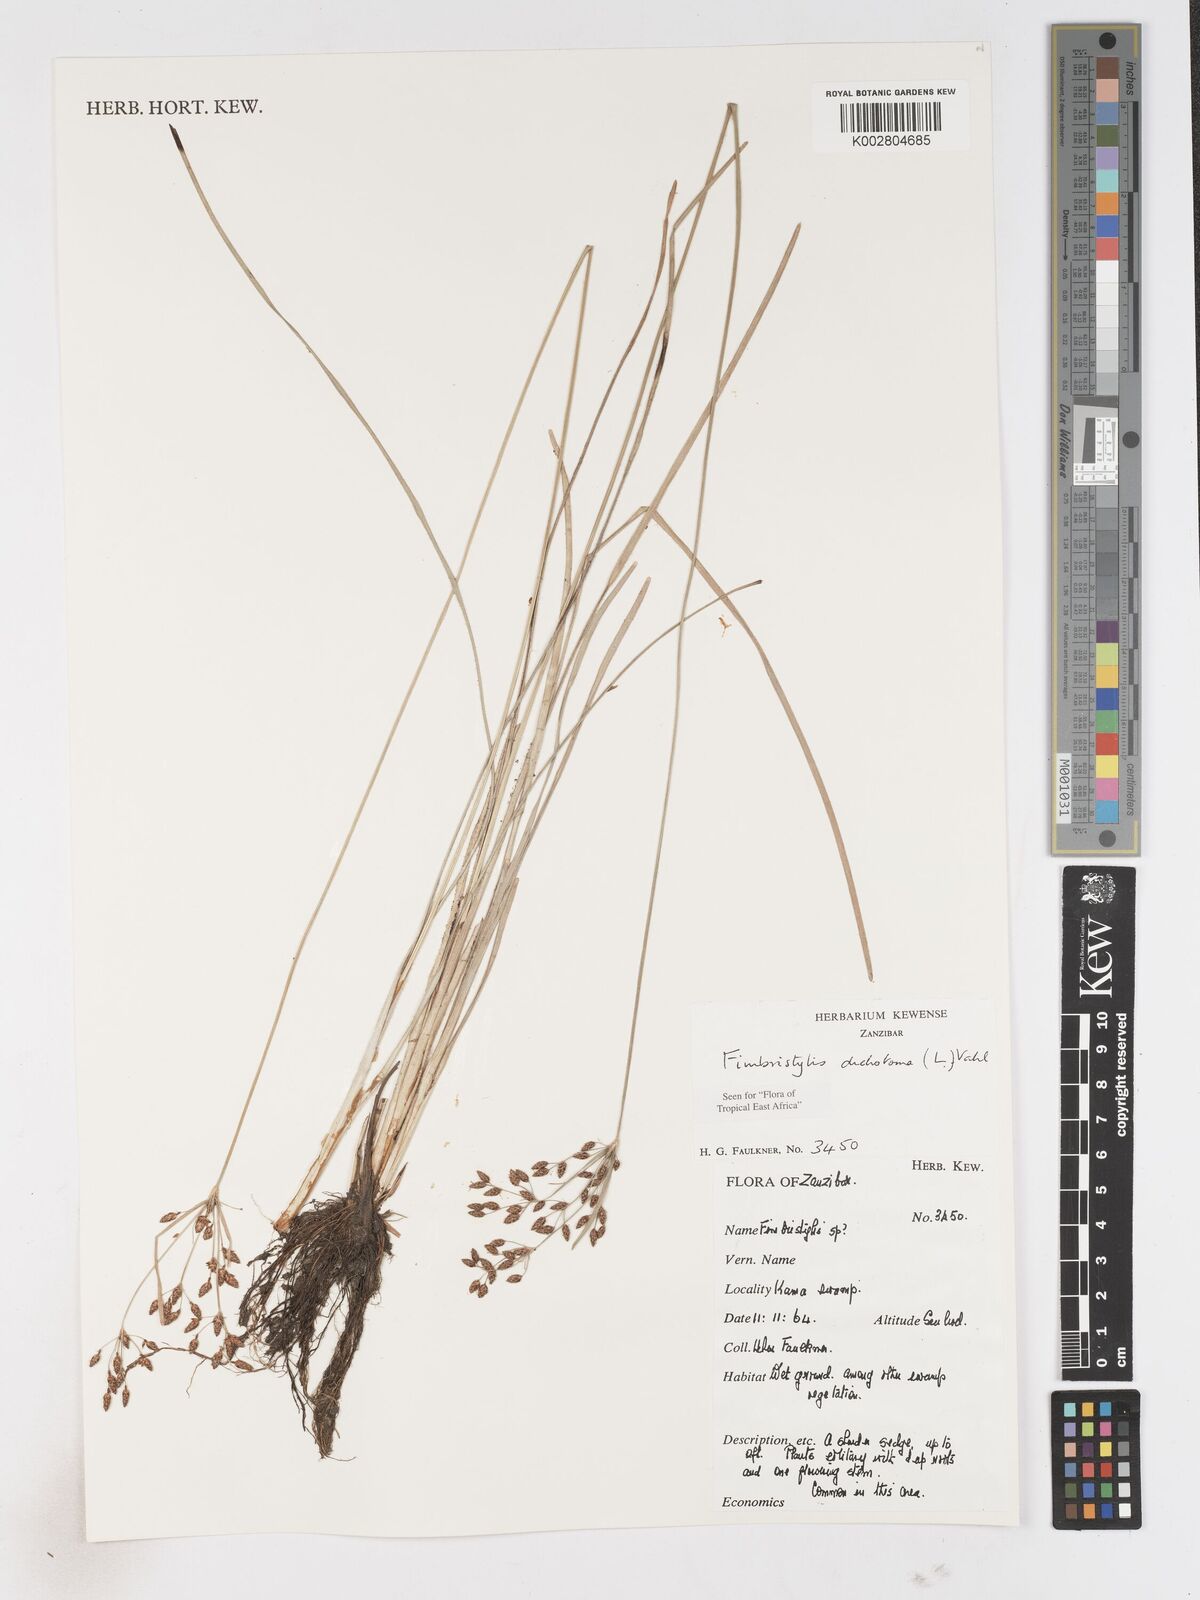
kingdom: Plantae
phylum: Tracheophyta
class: Liliopsida
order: Poales
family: Cyperaceae
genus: Fimbristylis
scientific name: Fimbristylis dichotoma
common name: Forked fimbry
